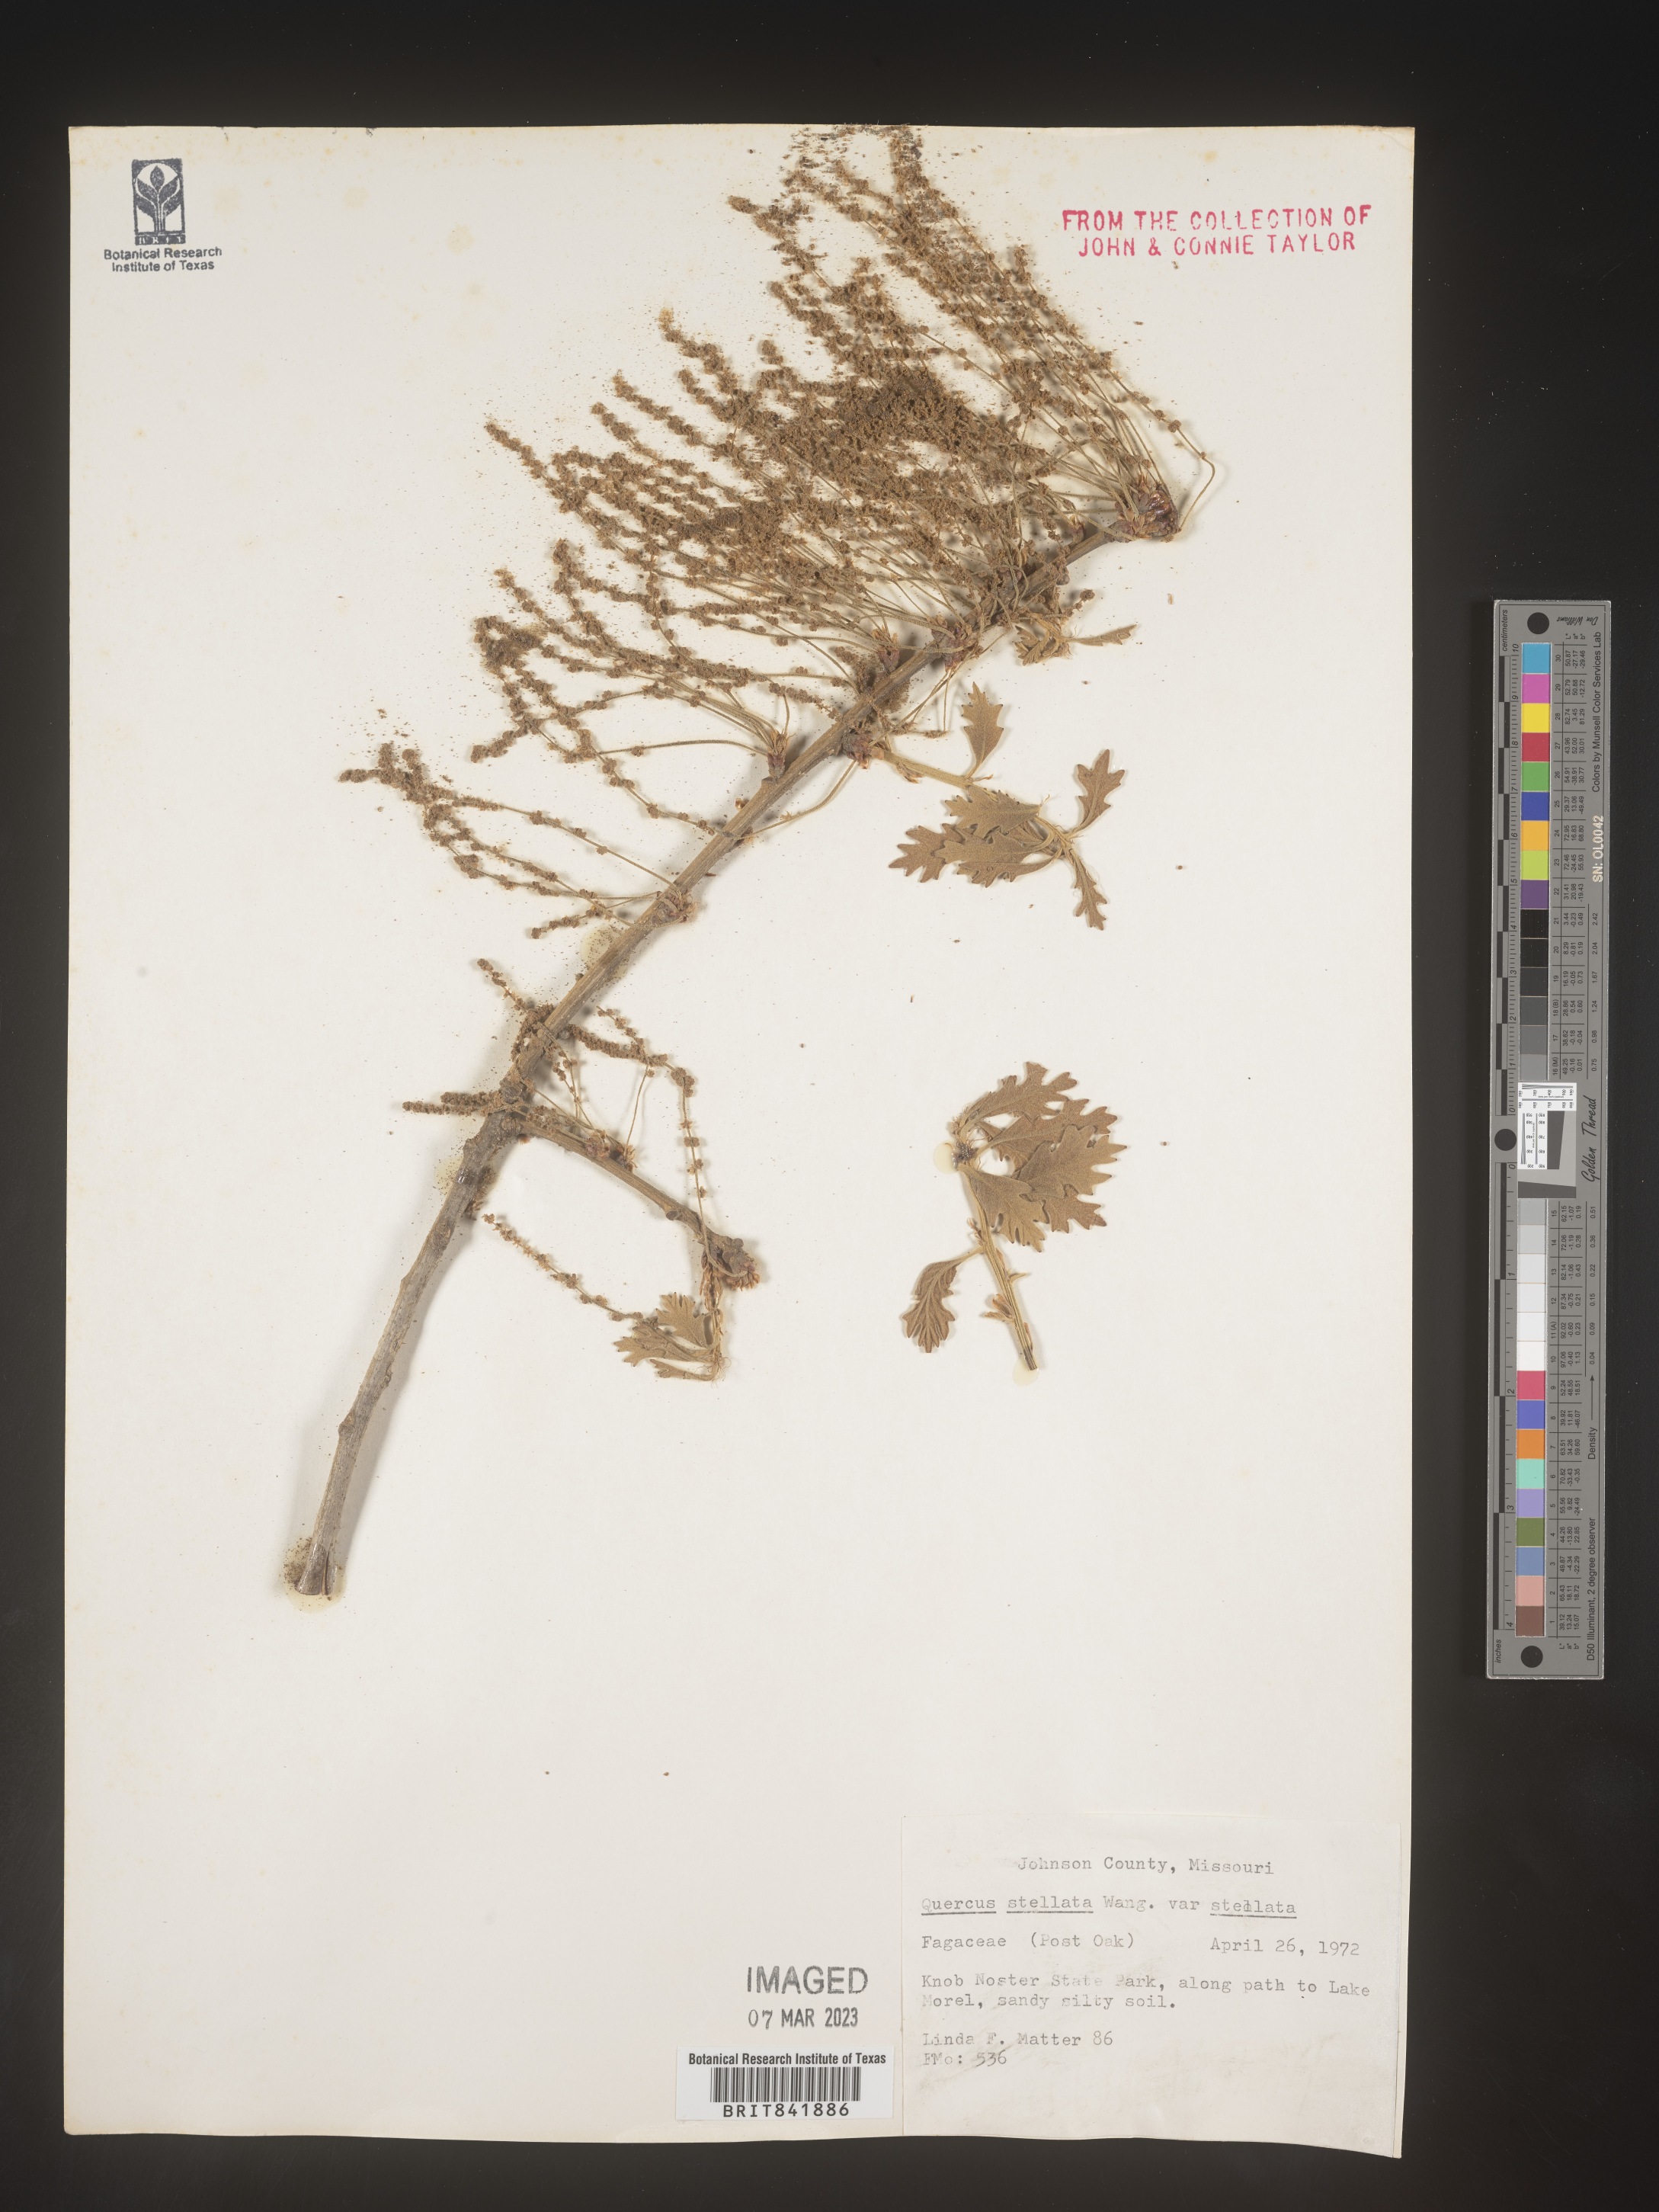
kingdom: Plantae
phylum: Tracheophyta
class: Magnoliopsida
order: Fagales
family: Fagaceae
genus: Quercus
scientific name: Quercus stellata
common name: Post oak
